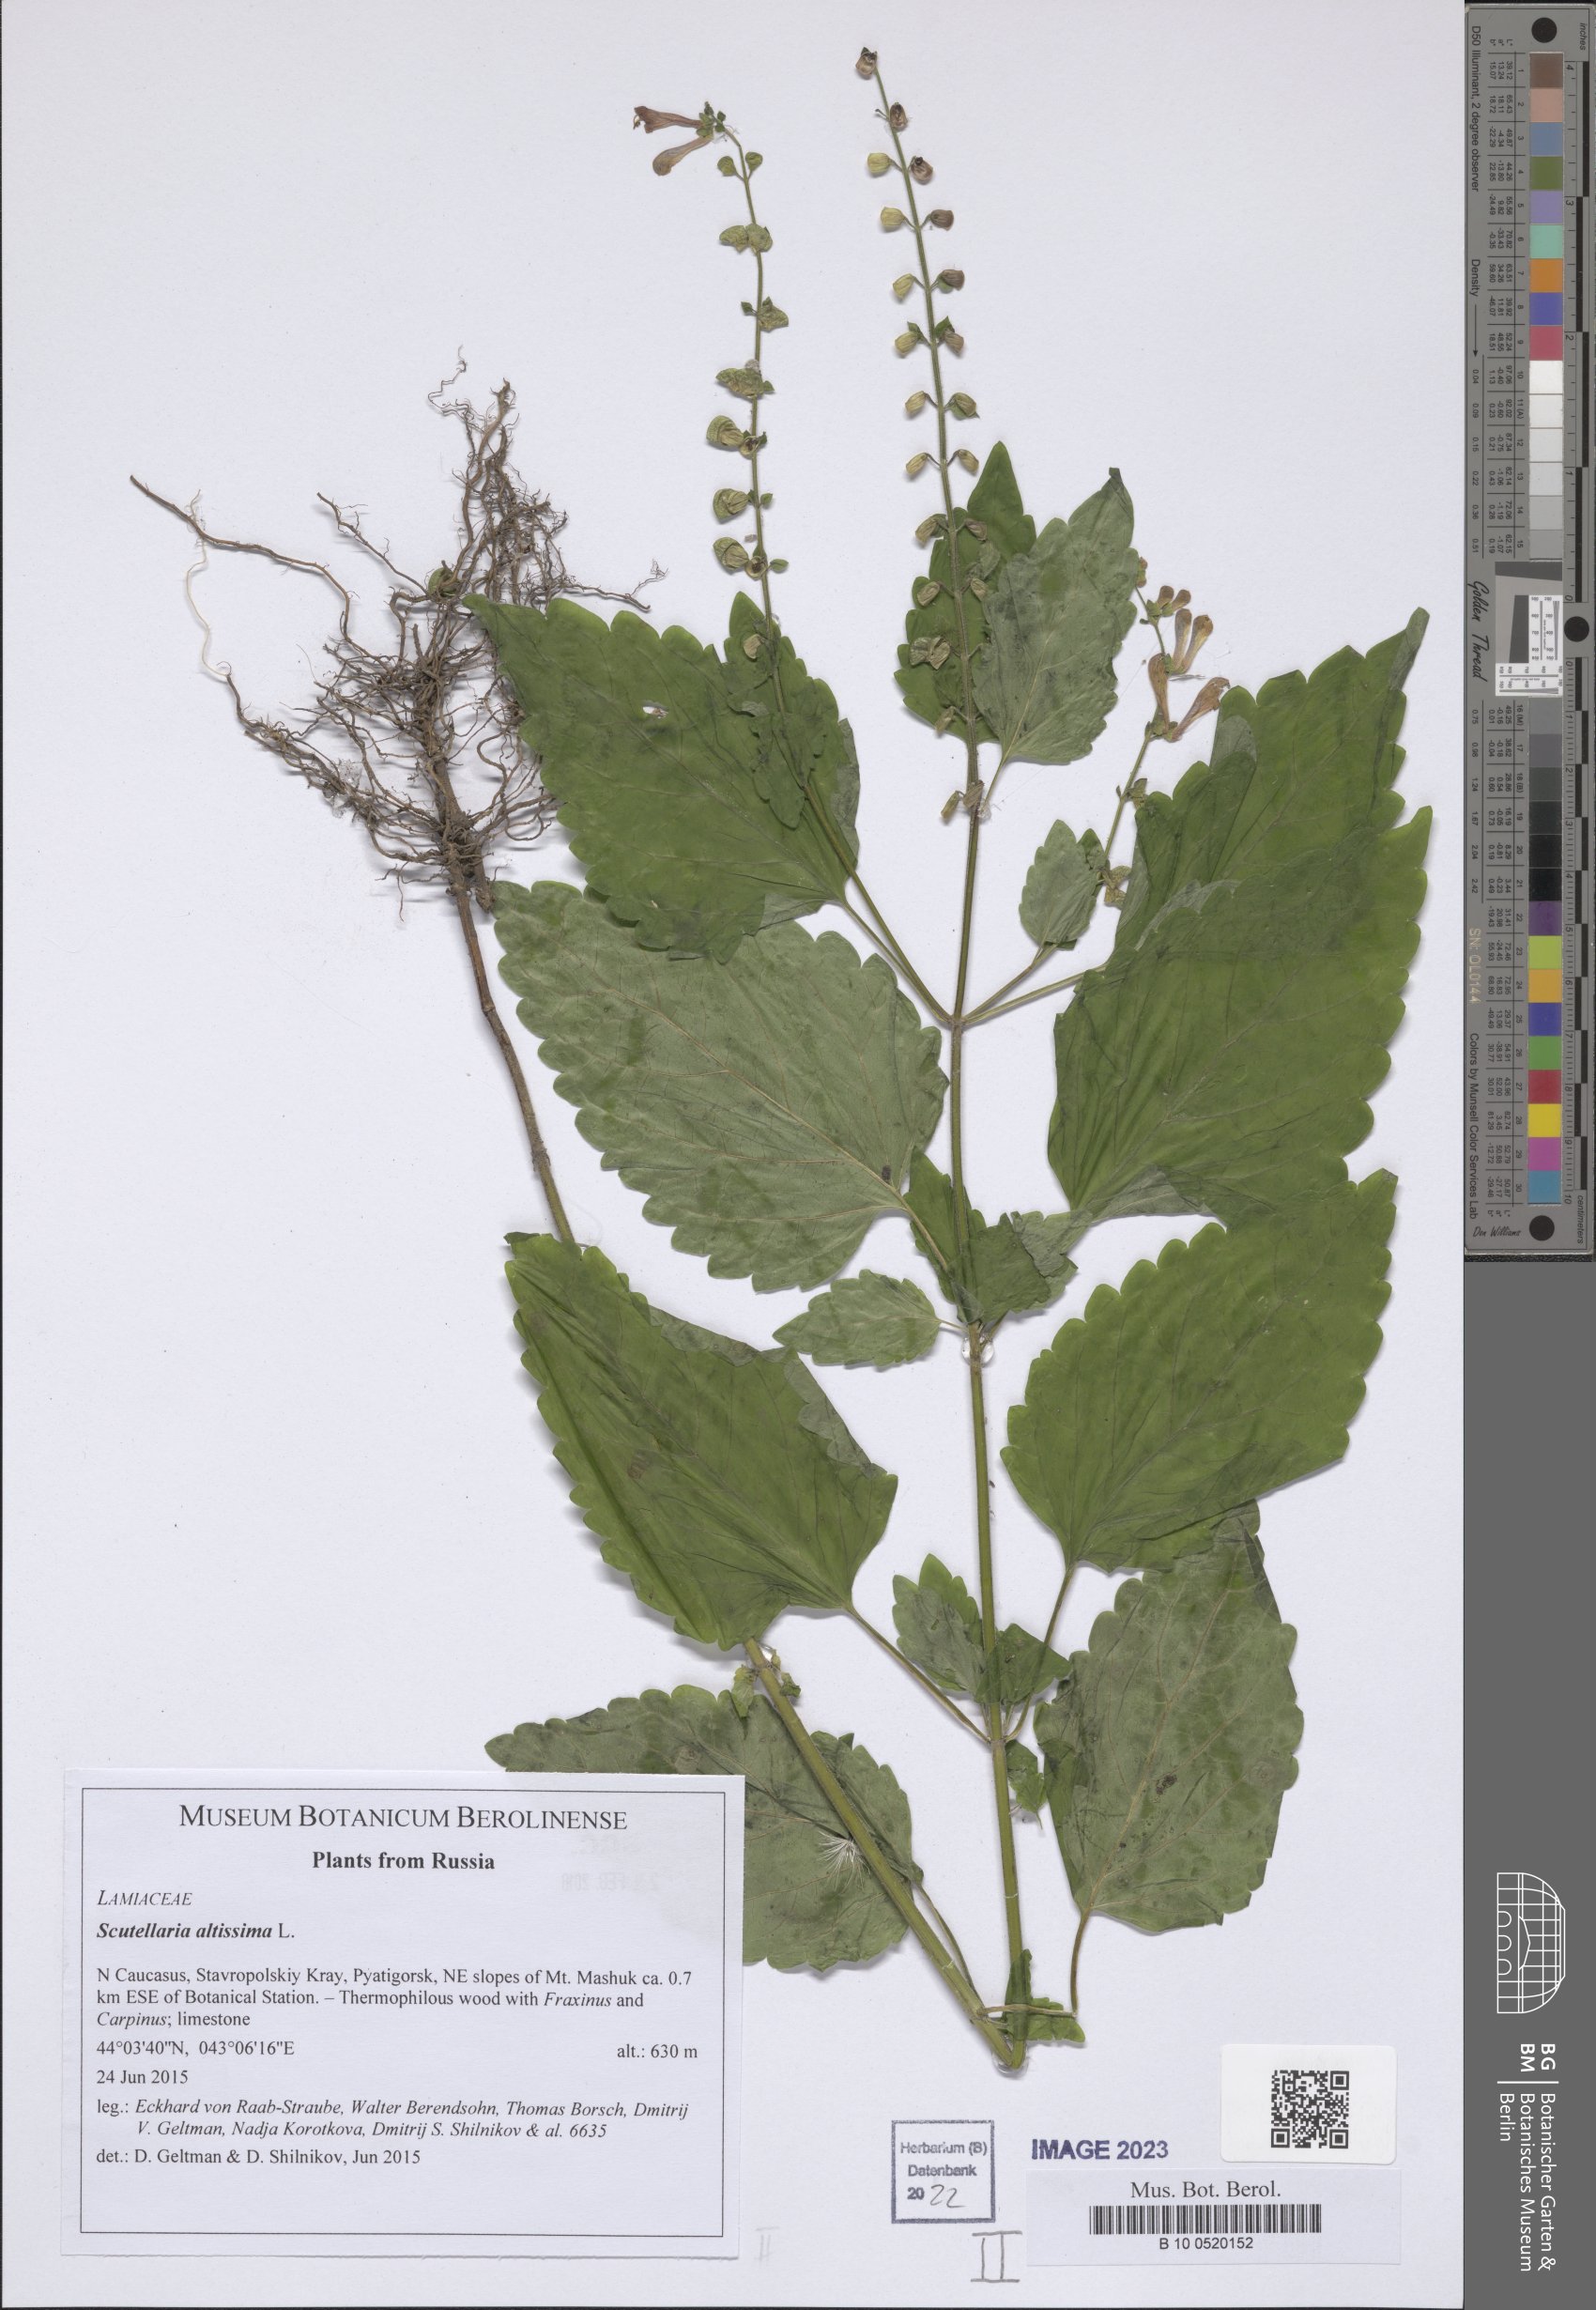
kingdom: Plantae
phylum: Tracheophyta
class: Magnoliopsida
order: Lamiales
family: Lamiaceae
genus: Scutellaria
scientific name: Scutellaria altissima
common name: Somerset skullcap
